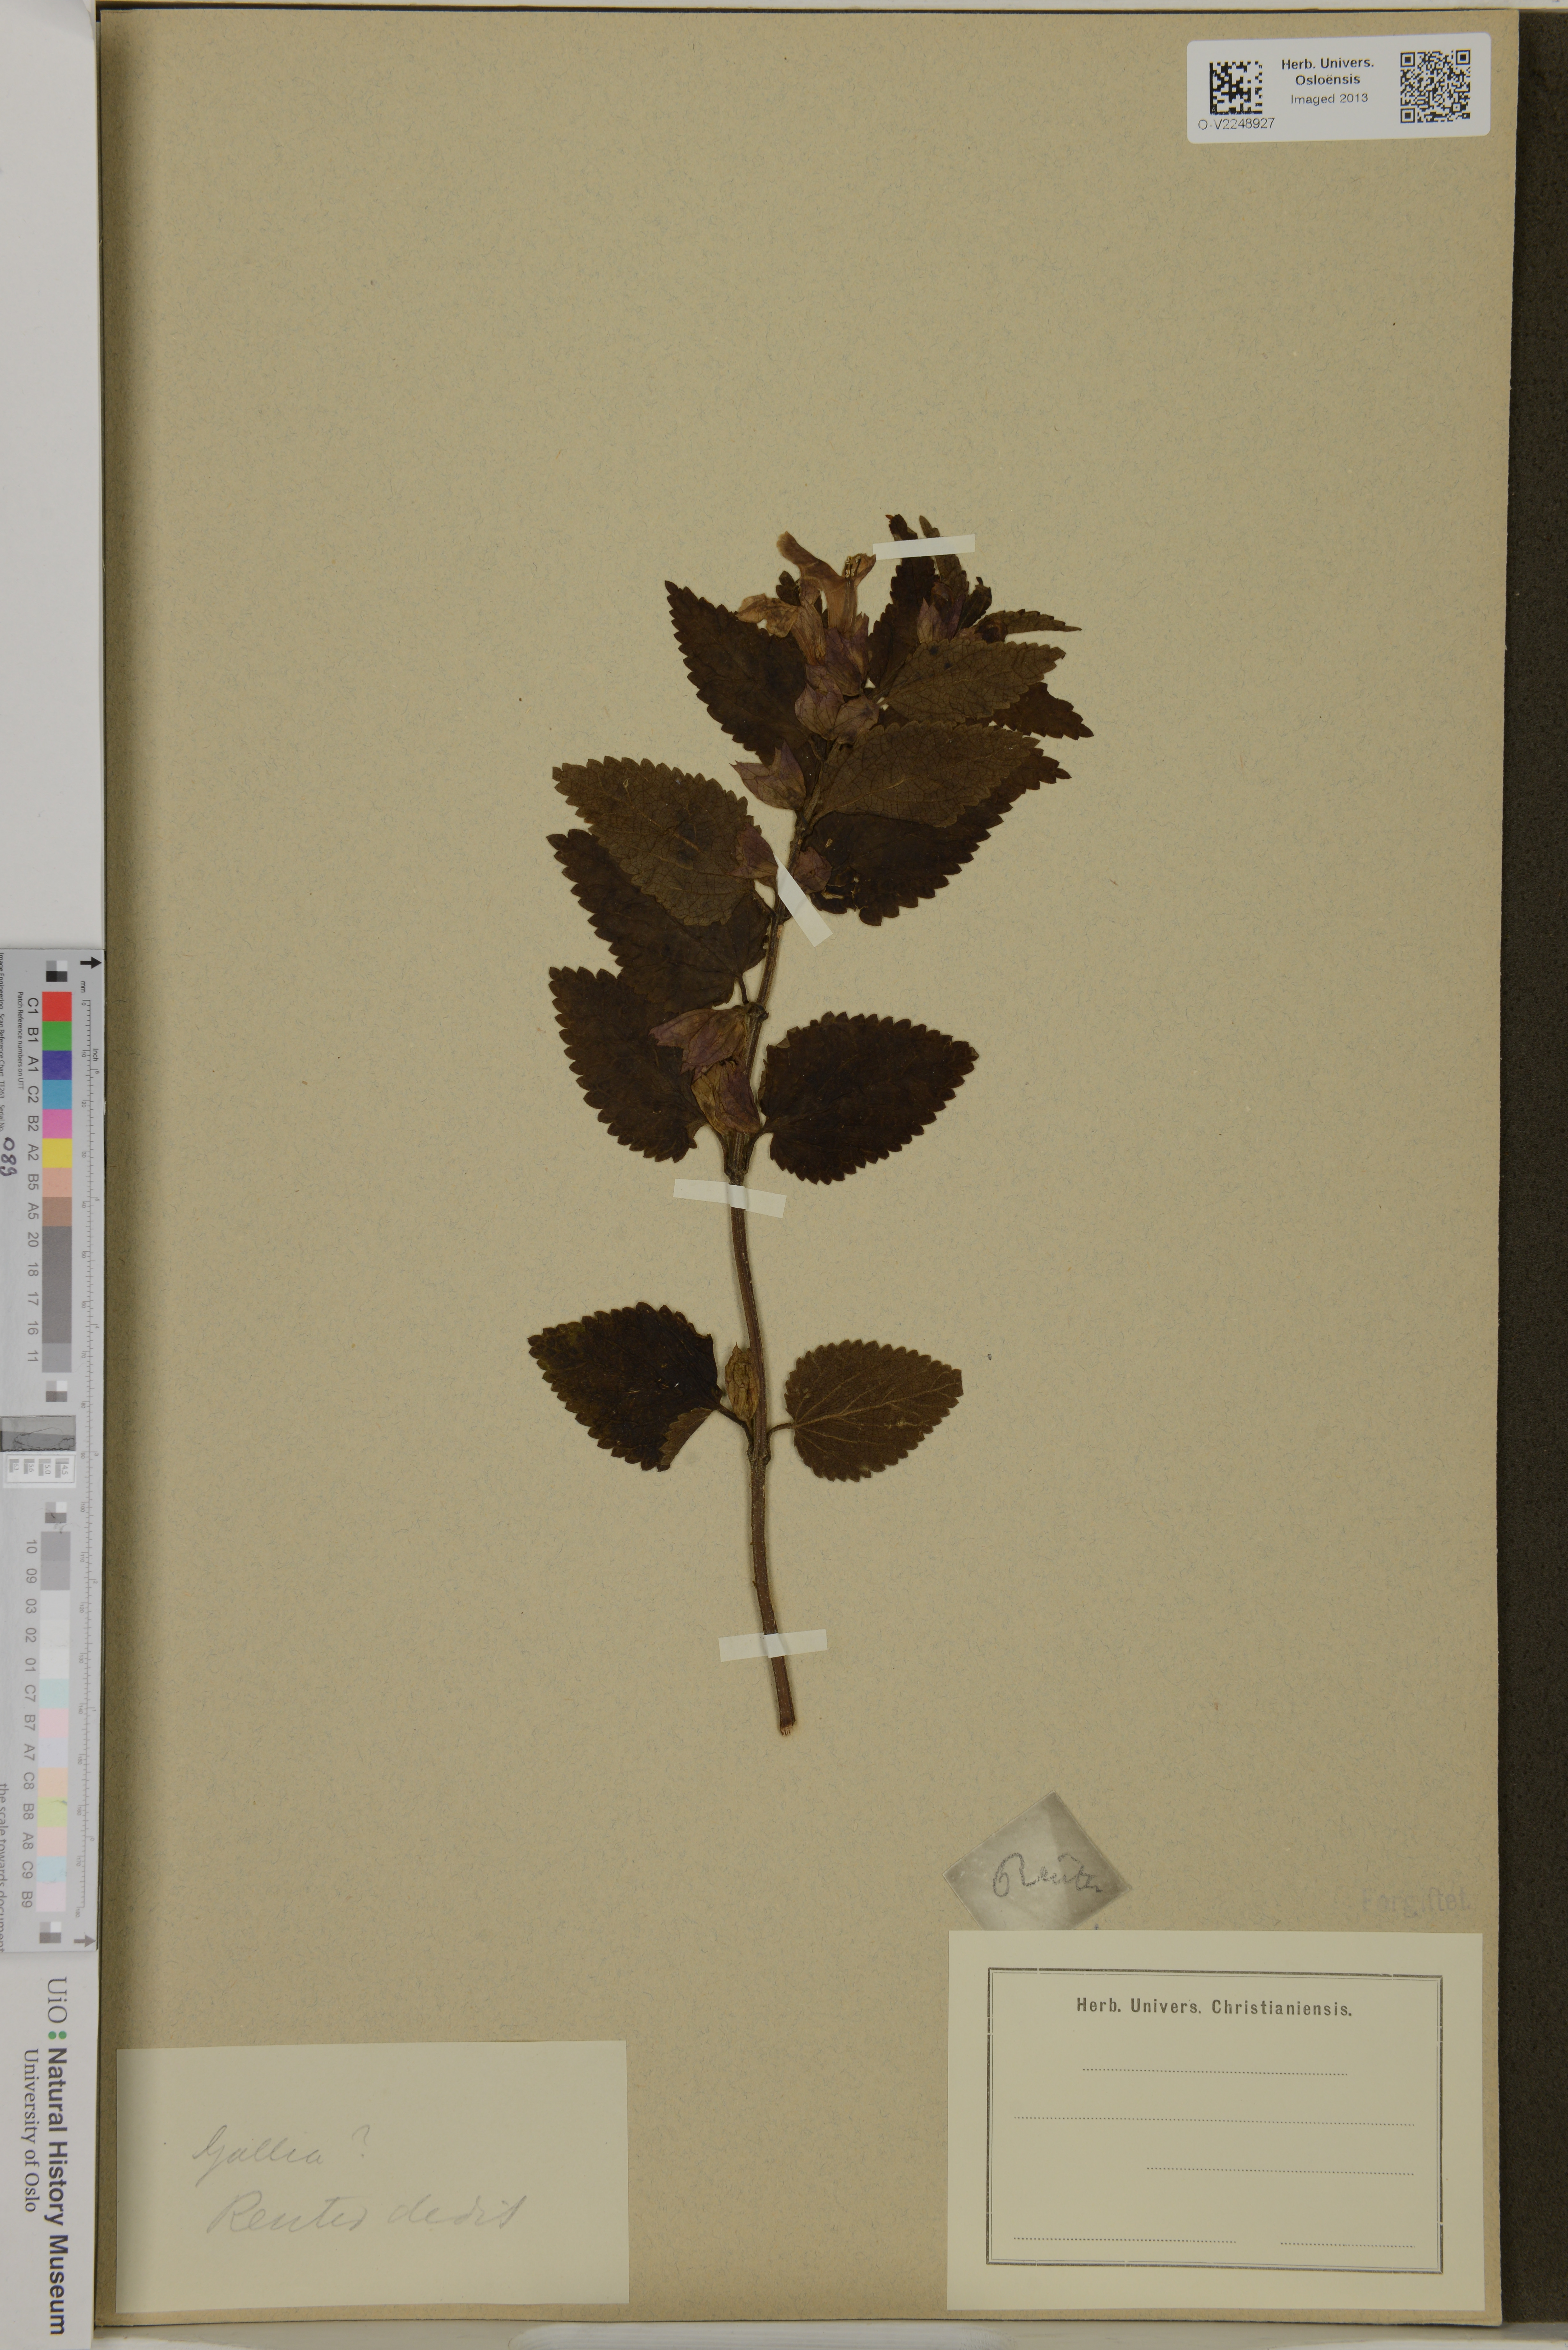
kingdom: Plantae
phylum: Tracheophyta
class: Magnoliopsida
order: Lamiales
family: Lamiaceae
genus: Melittis
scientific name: Melittis
